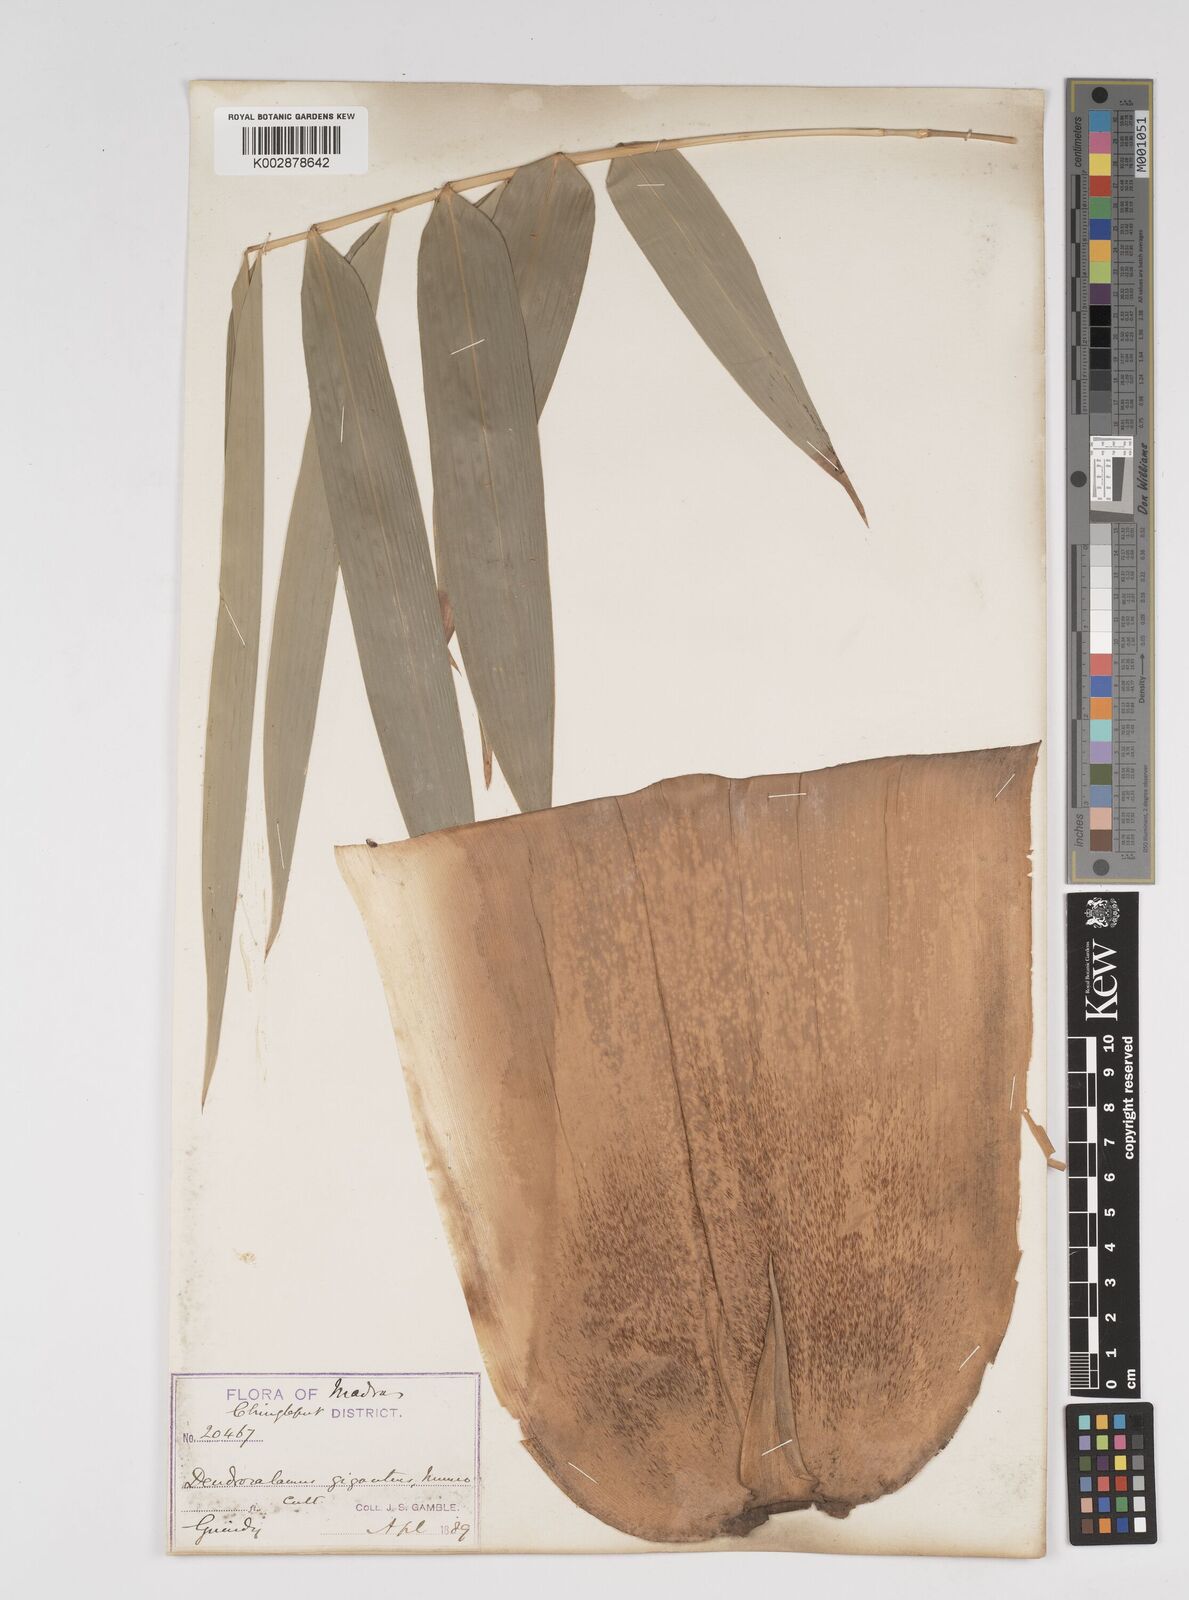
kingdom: Plantae
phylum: Tracheophyta
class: Liliopsida
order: Poales
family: Poaceae
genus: Dendrocalamus
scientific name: Dendrocalamus giganteus
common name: Giant bamboo
